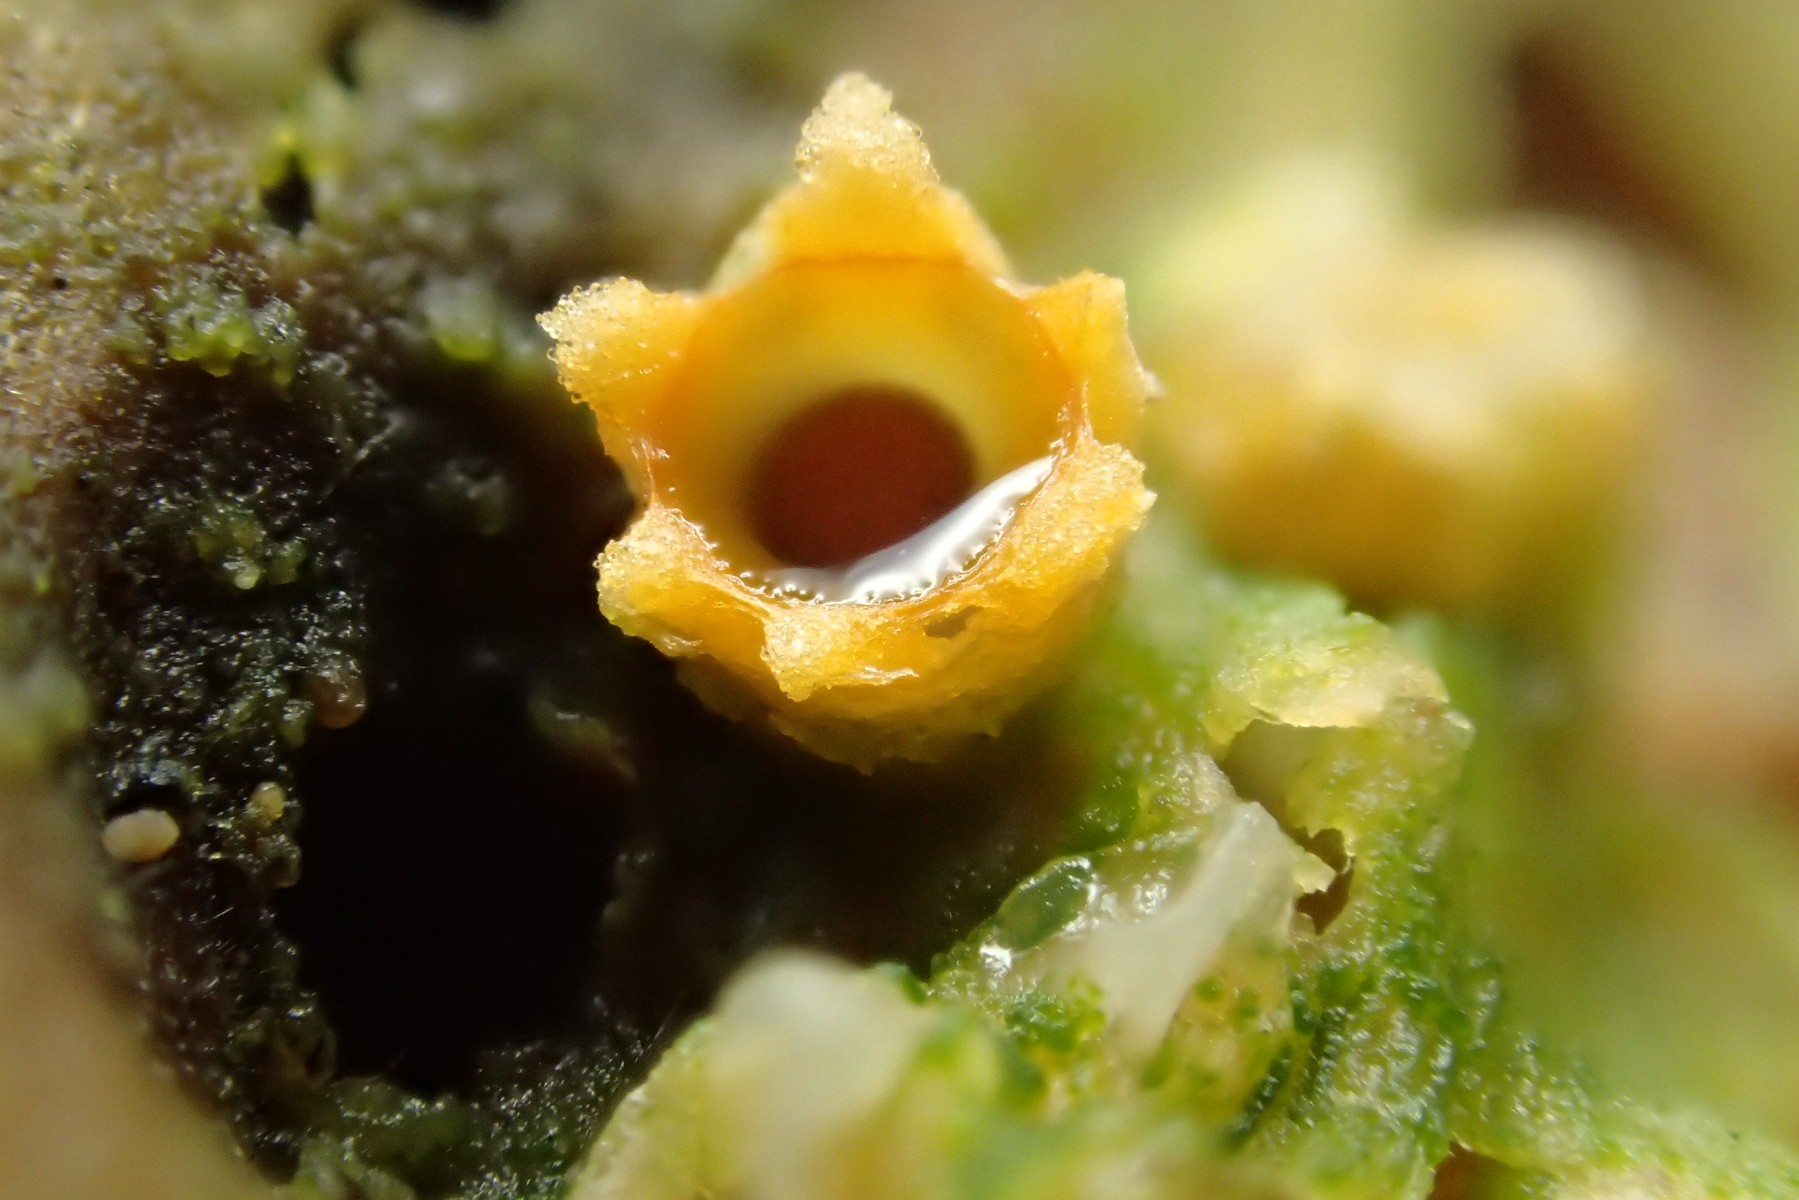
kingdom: Fungi
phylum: Basidiomycota
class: Agaricomycetes
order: Geastrales
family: Geastraceae
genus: Sphaerobolus
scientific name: Sphaerobolus stellatus
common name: bombekaster
